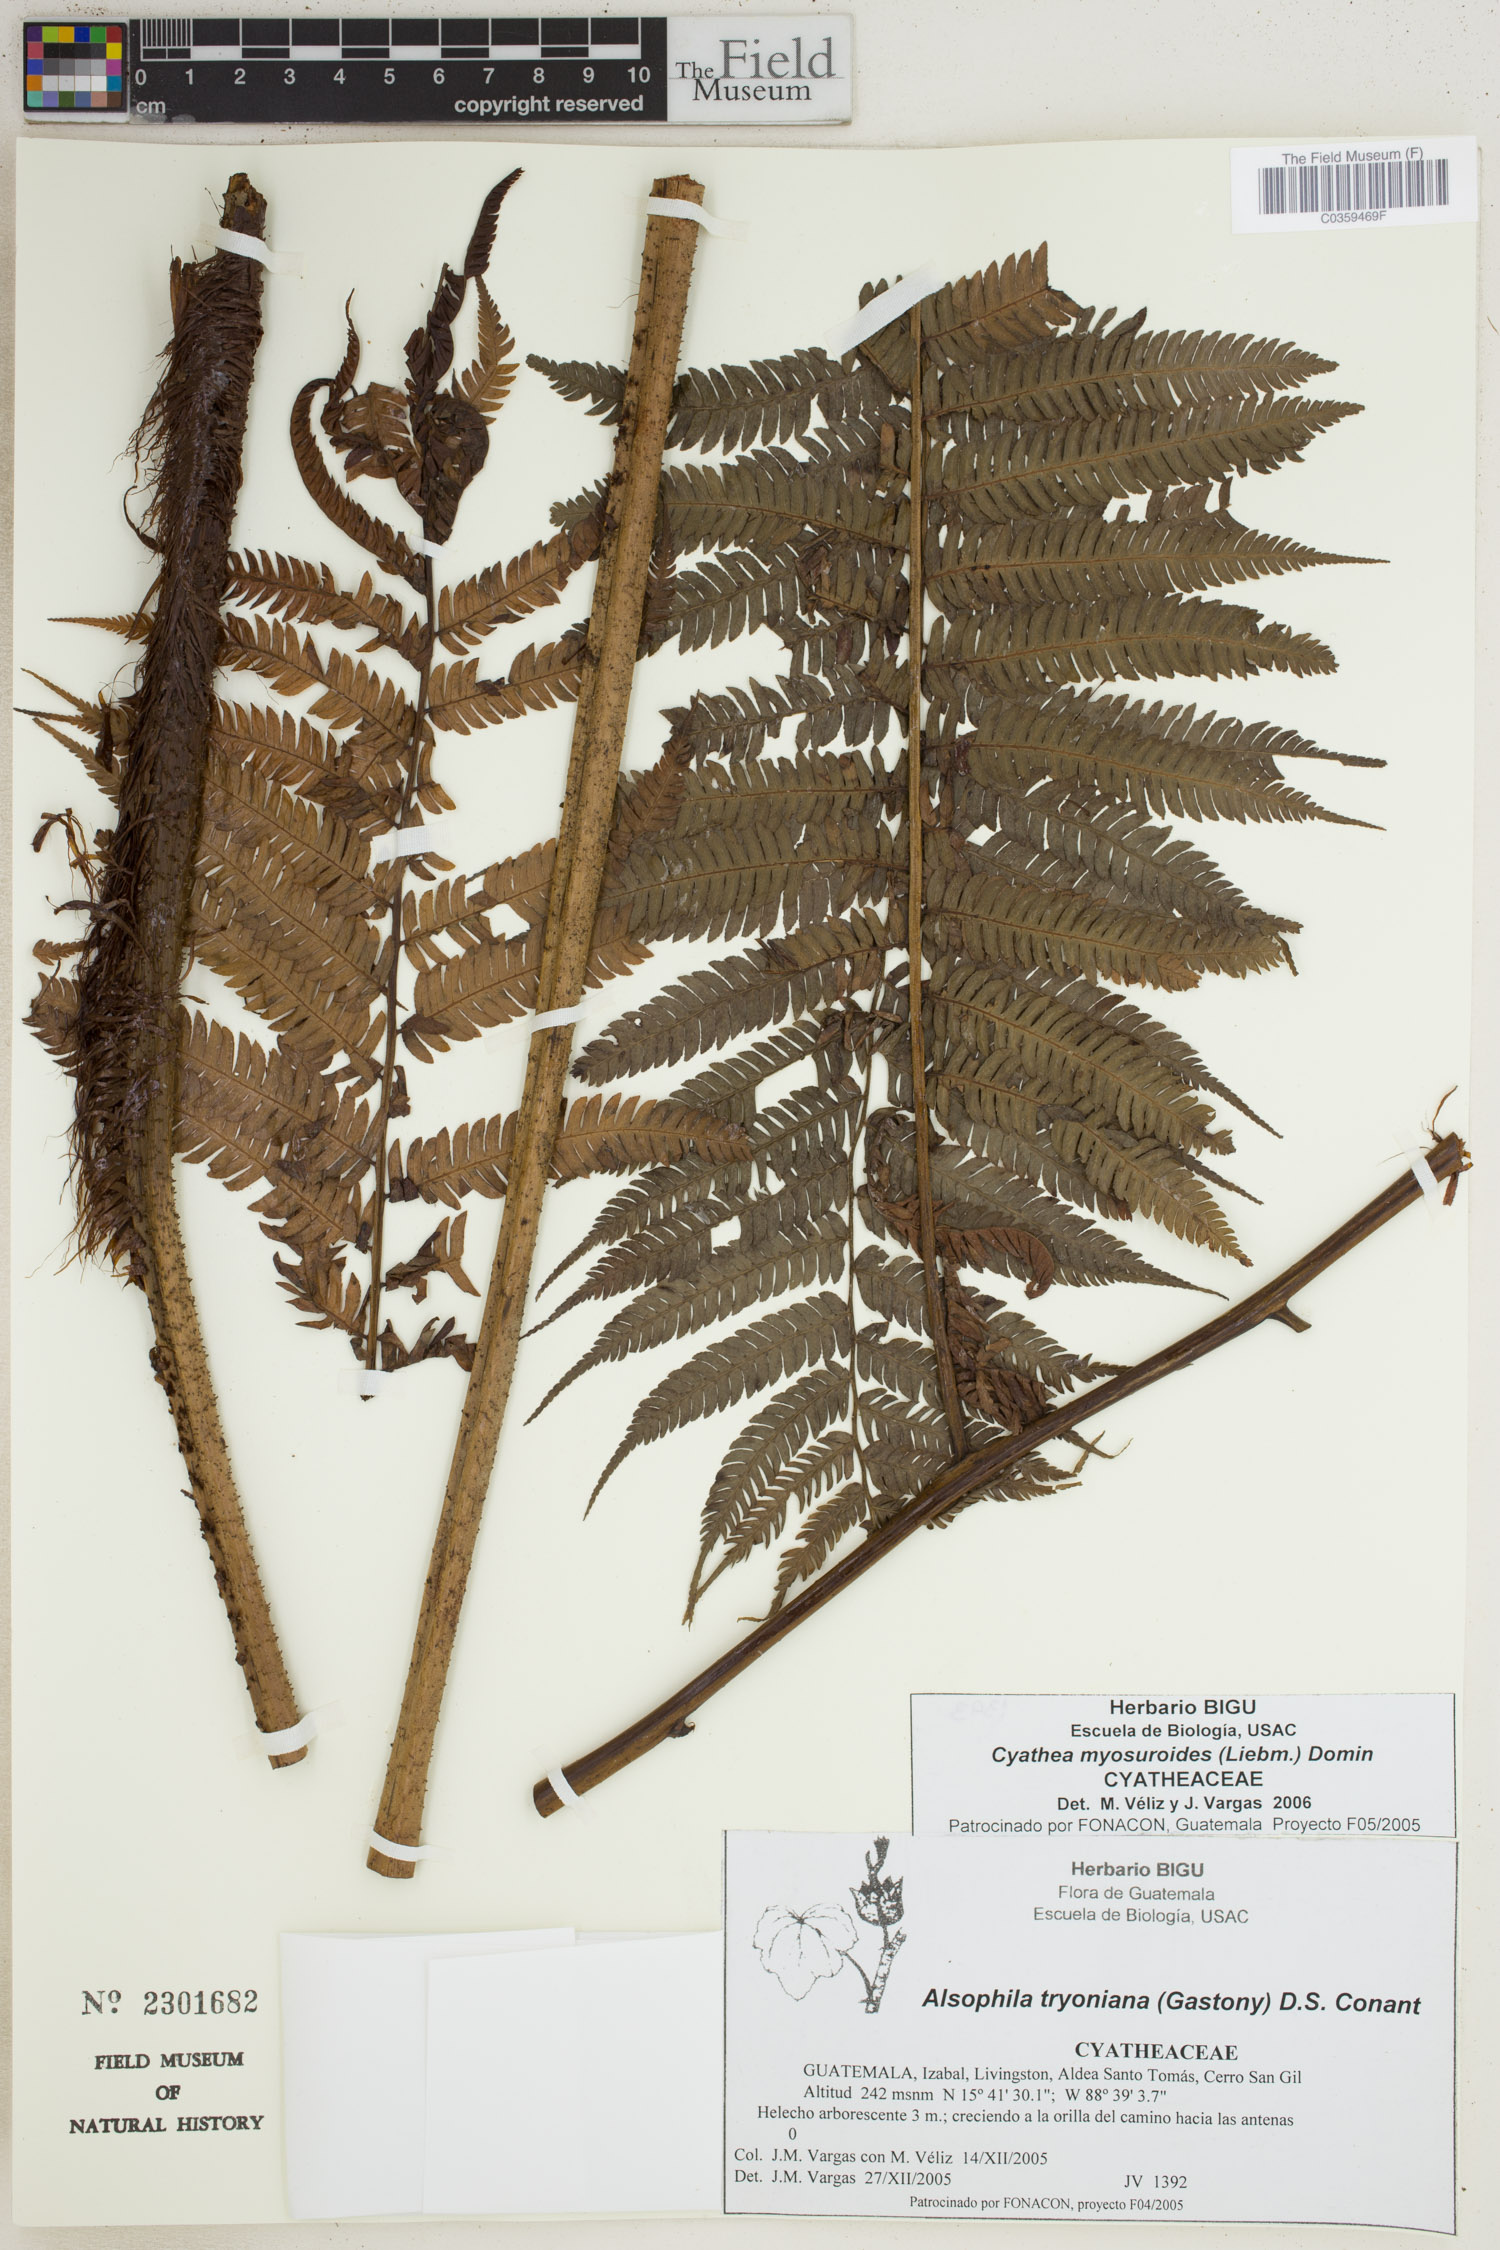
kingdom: Plantae
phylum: Tracheophyta
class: Polypodiopsida
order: Cyatheales
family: Cyatheaceae
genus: Sphaeropteris
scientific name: Sphaeropteris myosuroides
